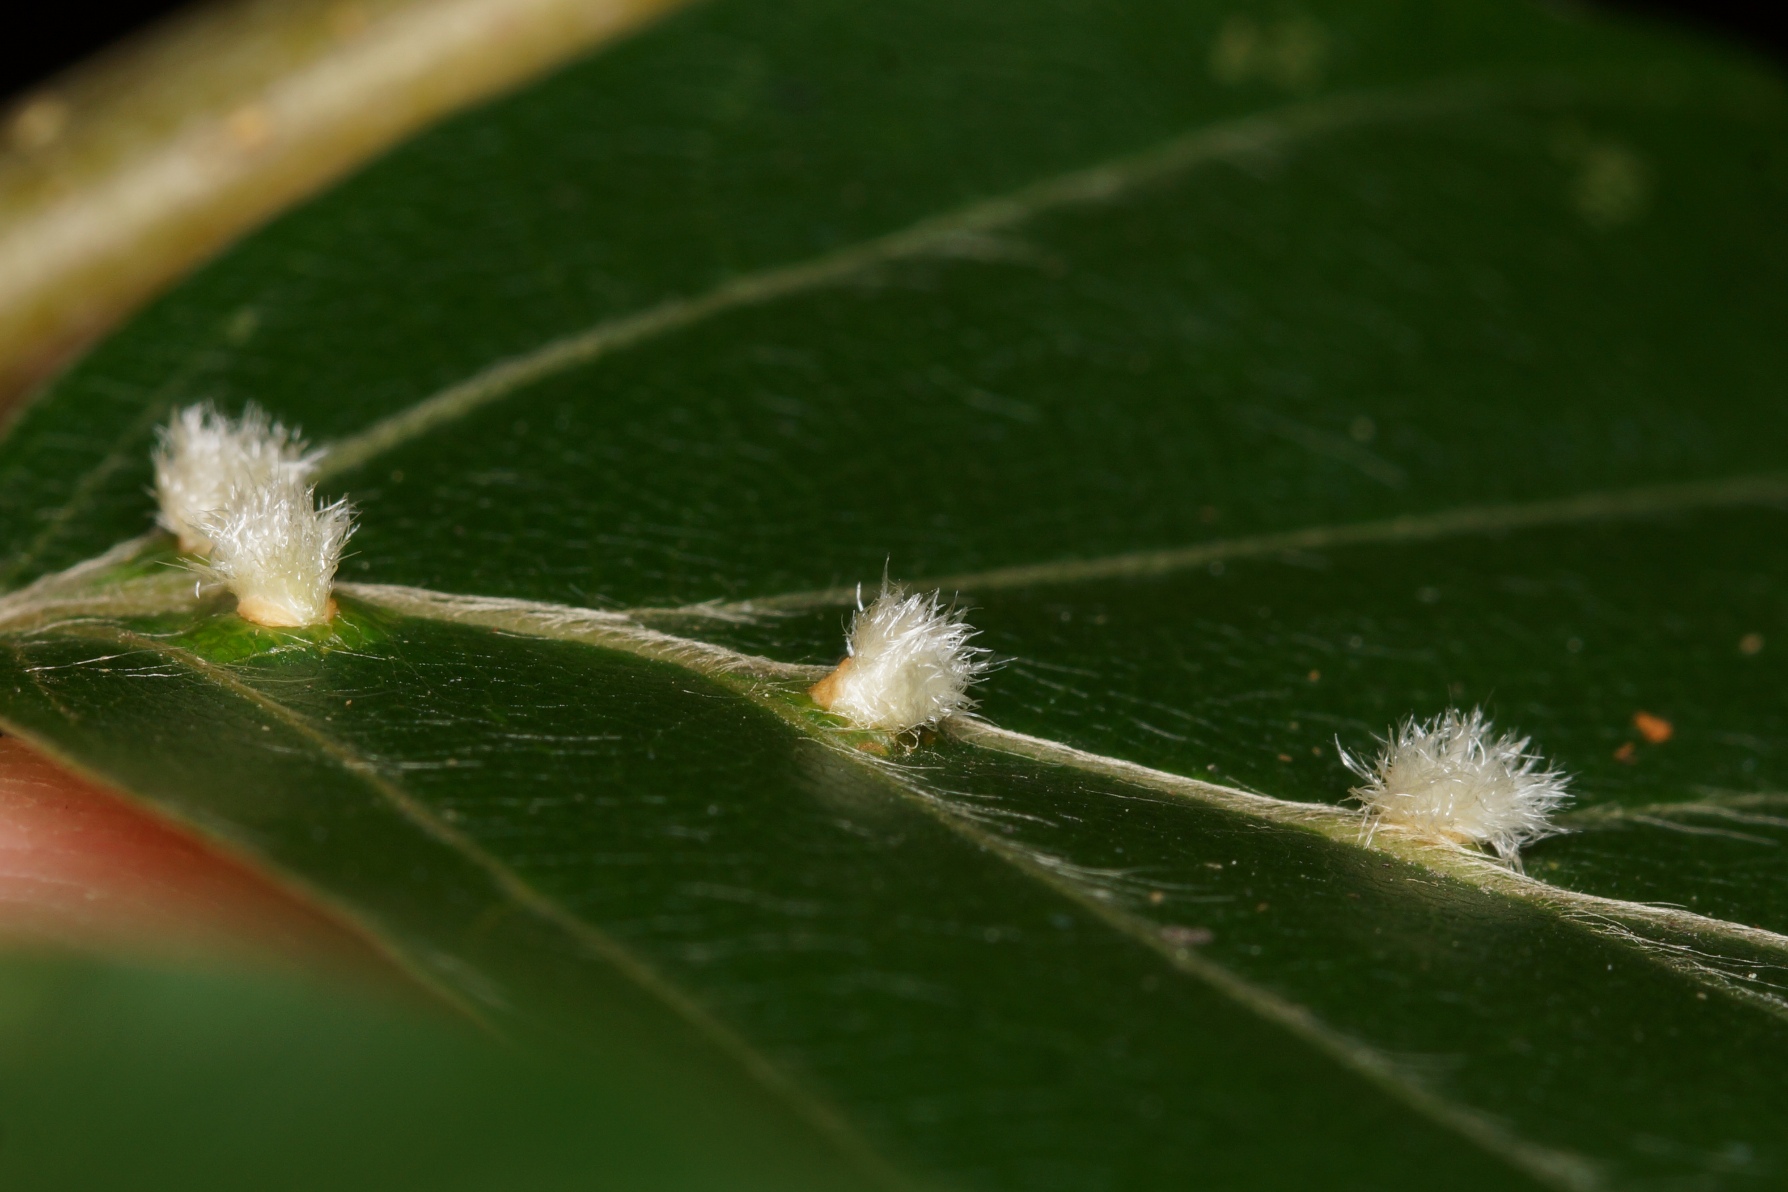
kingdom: Animalia
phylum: Arthropoda
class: Insecta
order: Diptera
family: Cecidomyiidae
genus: Hartigiola
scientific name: Hartigiola annulipes
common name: Skovtroldegalmyg
